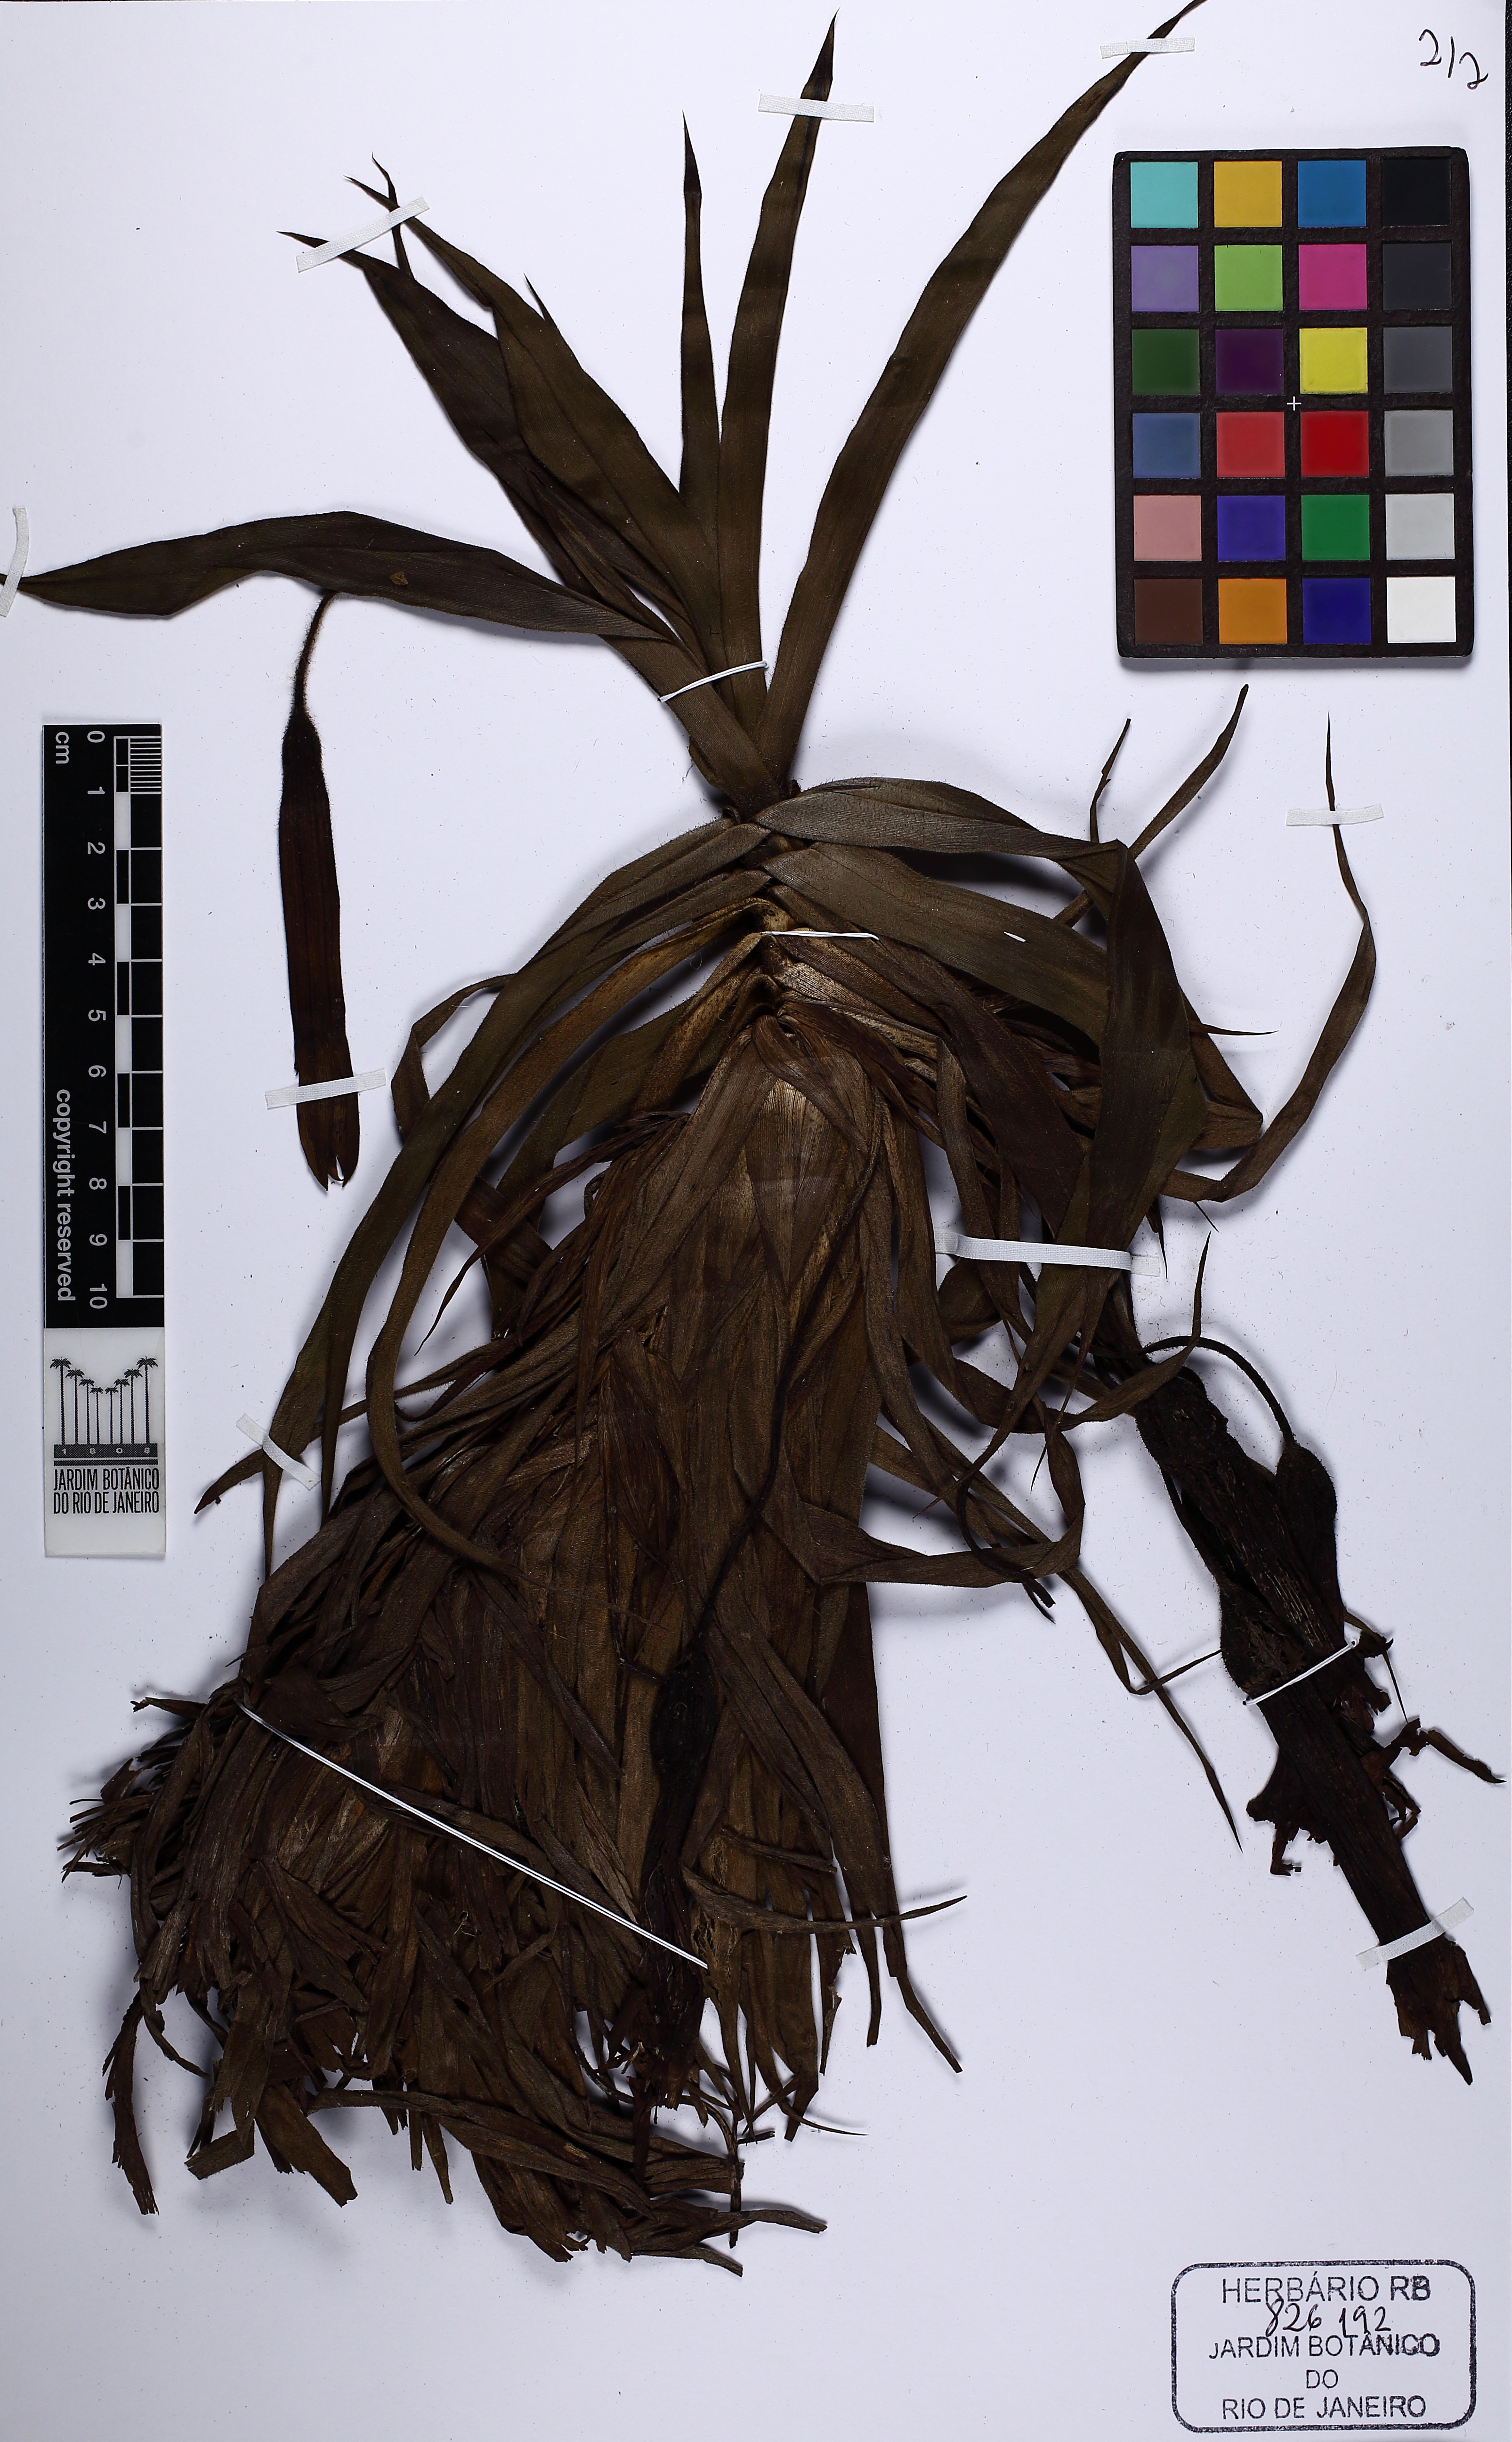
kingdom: Plantae
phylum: Tracheophyta
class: Liliopsida
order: Pandanales
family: Velloziaceae
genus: Barbacenia
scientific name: Barbacenia culta
